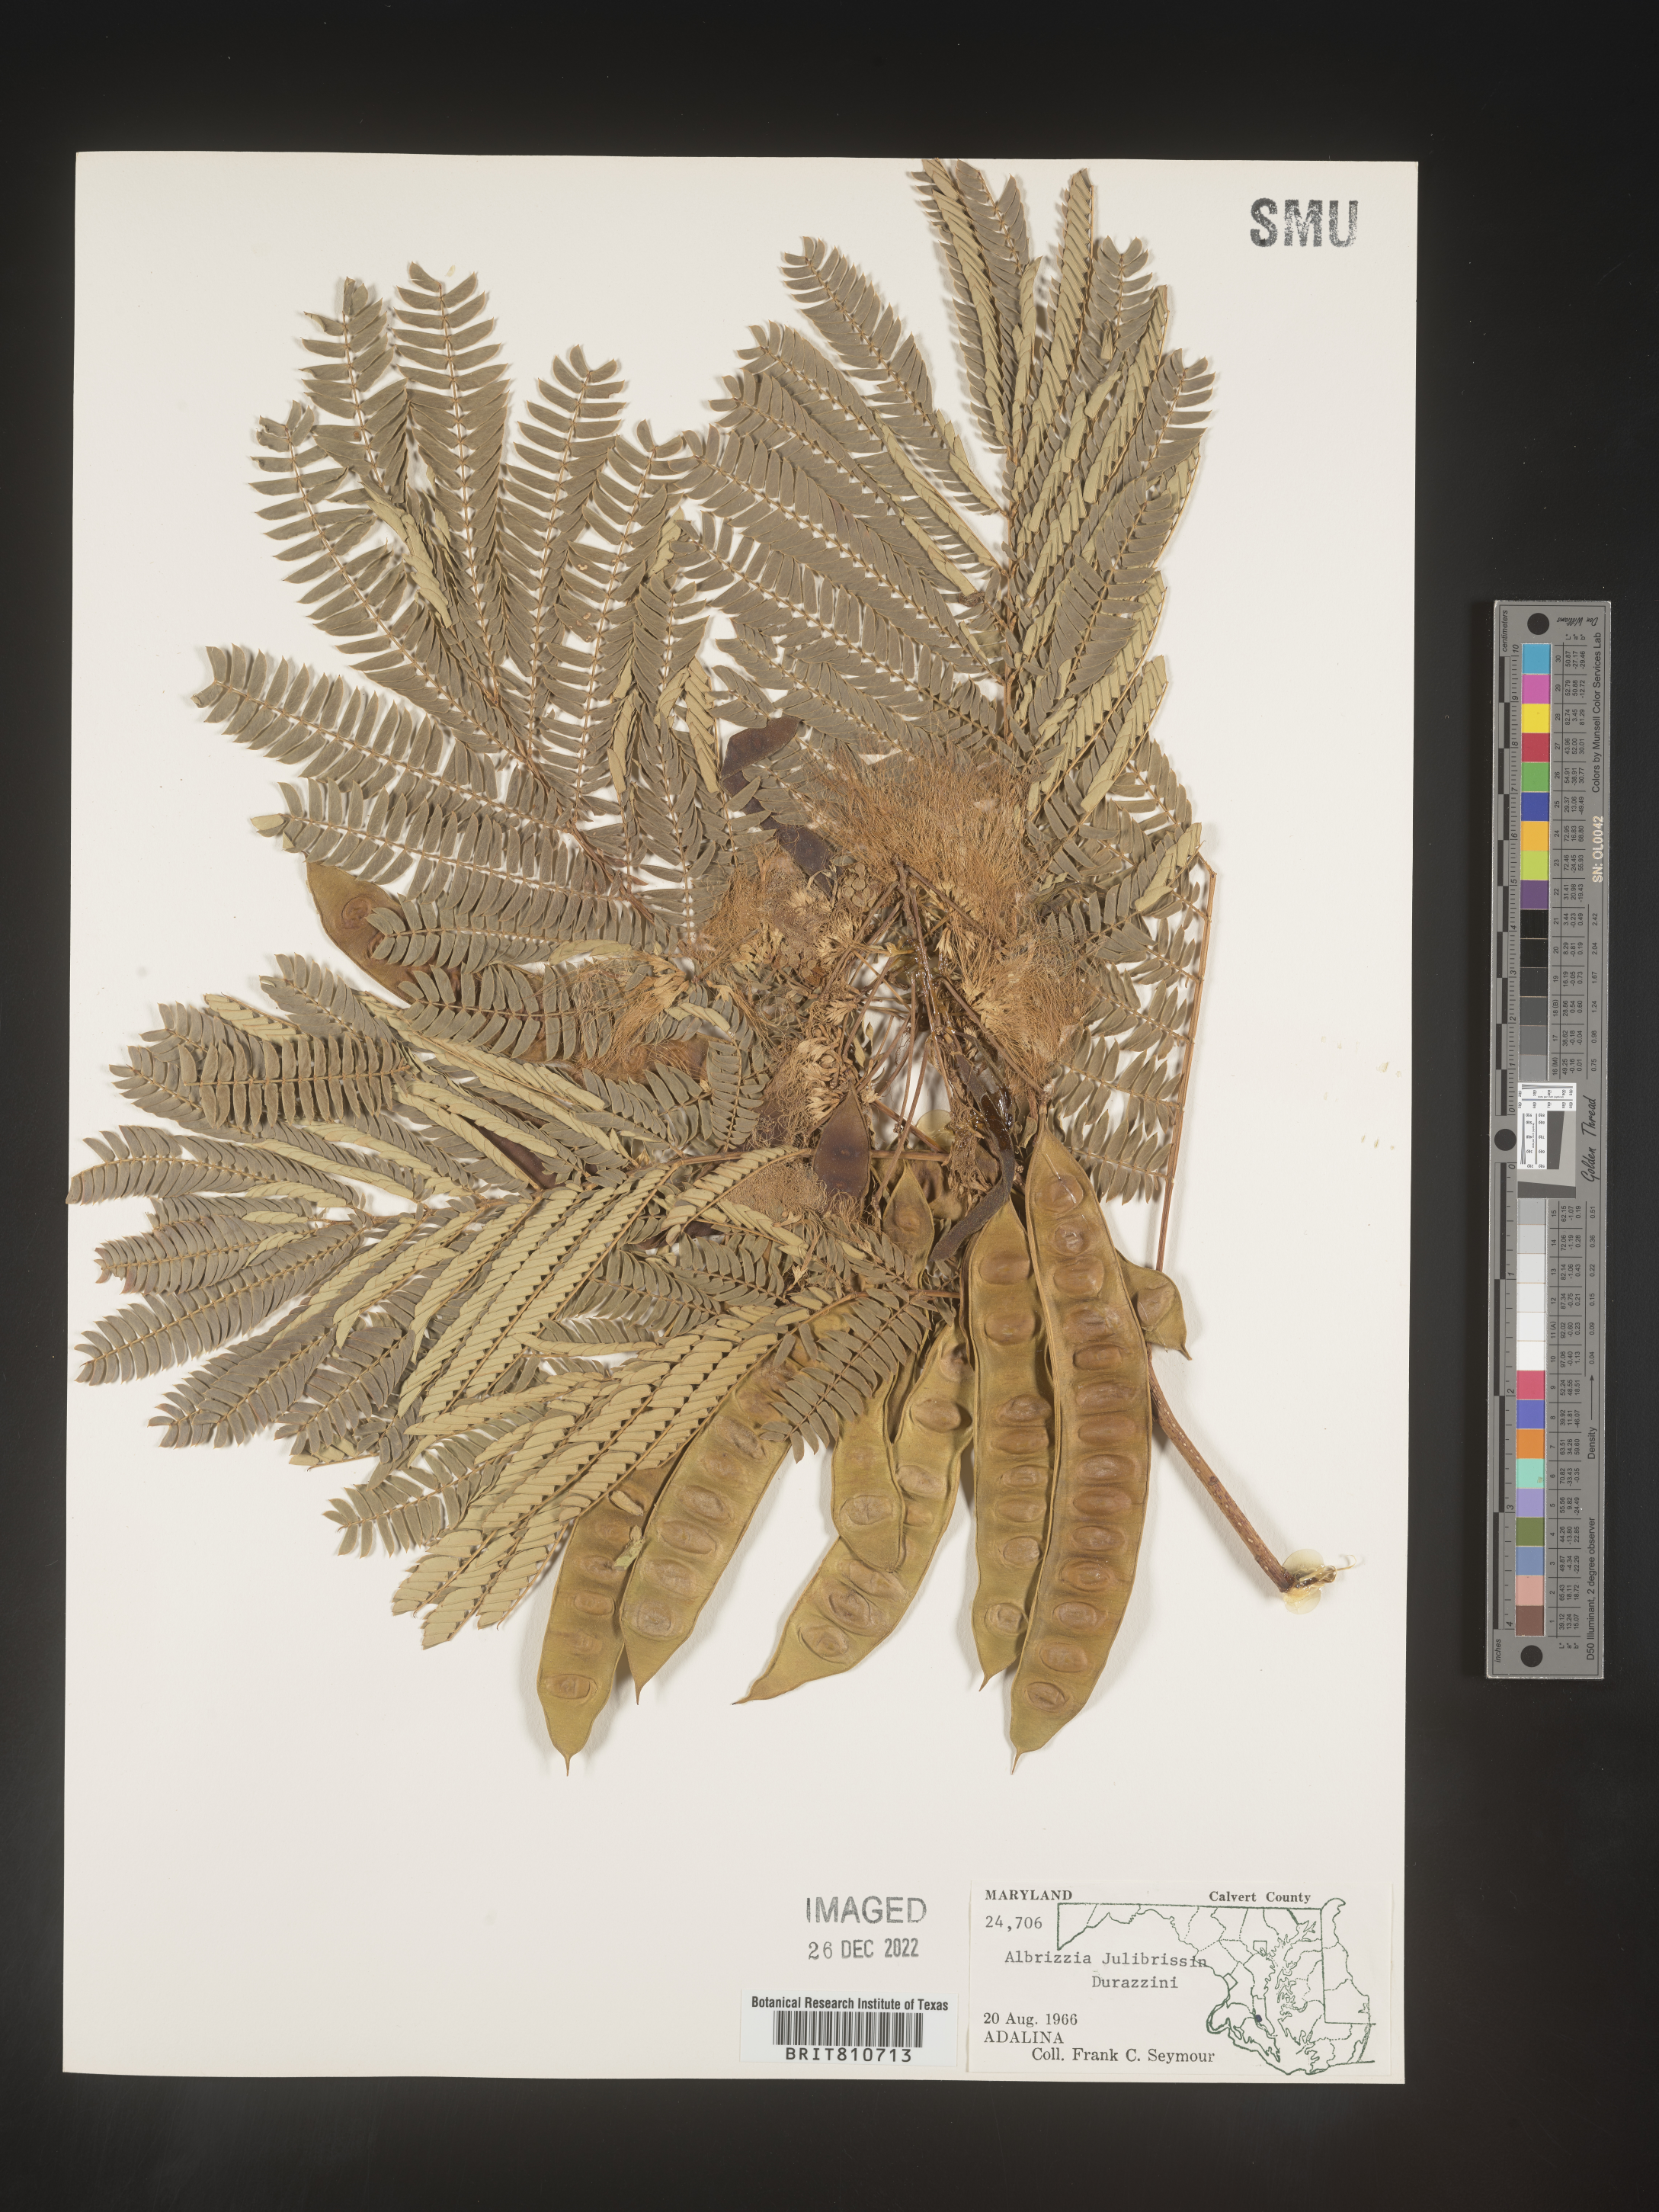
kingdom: Plantae
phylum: Tracheophyta
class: Magnoliopsida
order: Fabales
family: Fabaceae
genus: Albizia
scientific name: Albizia
